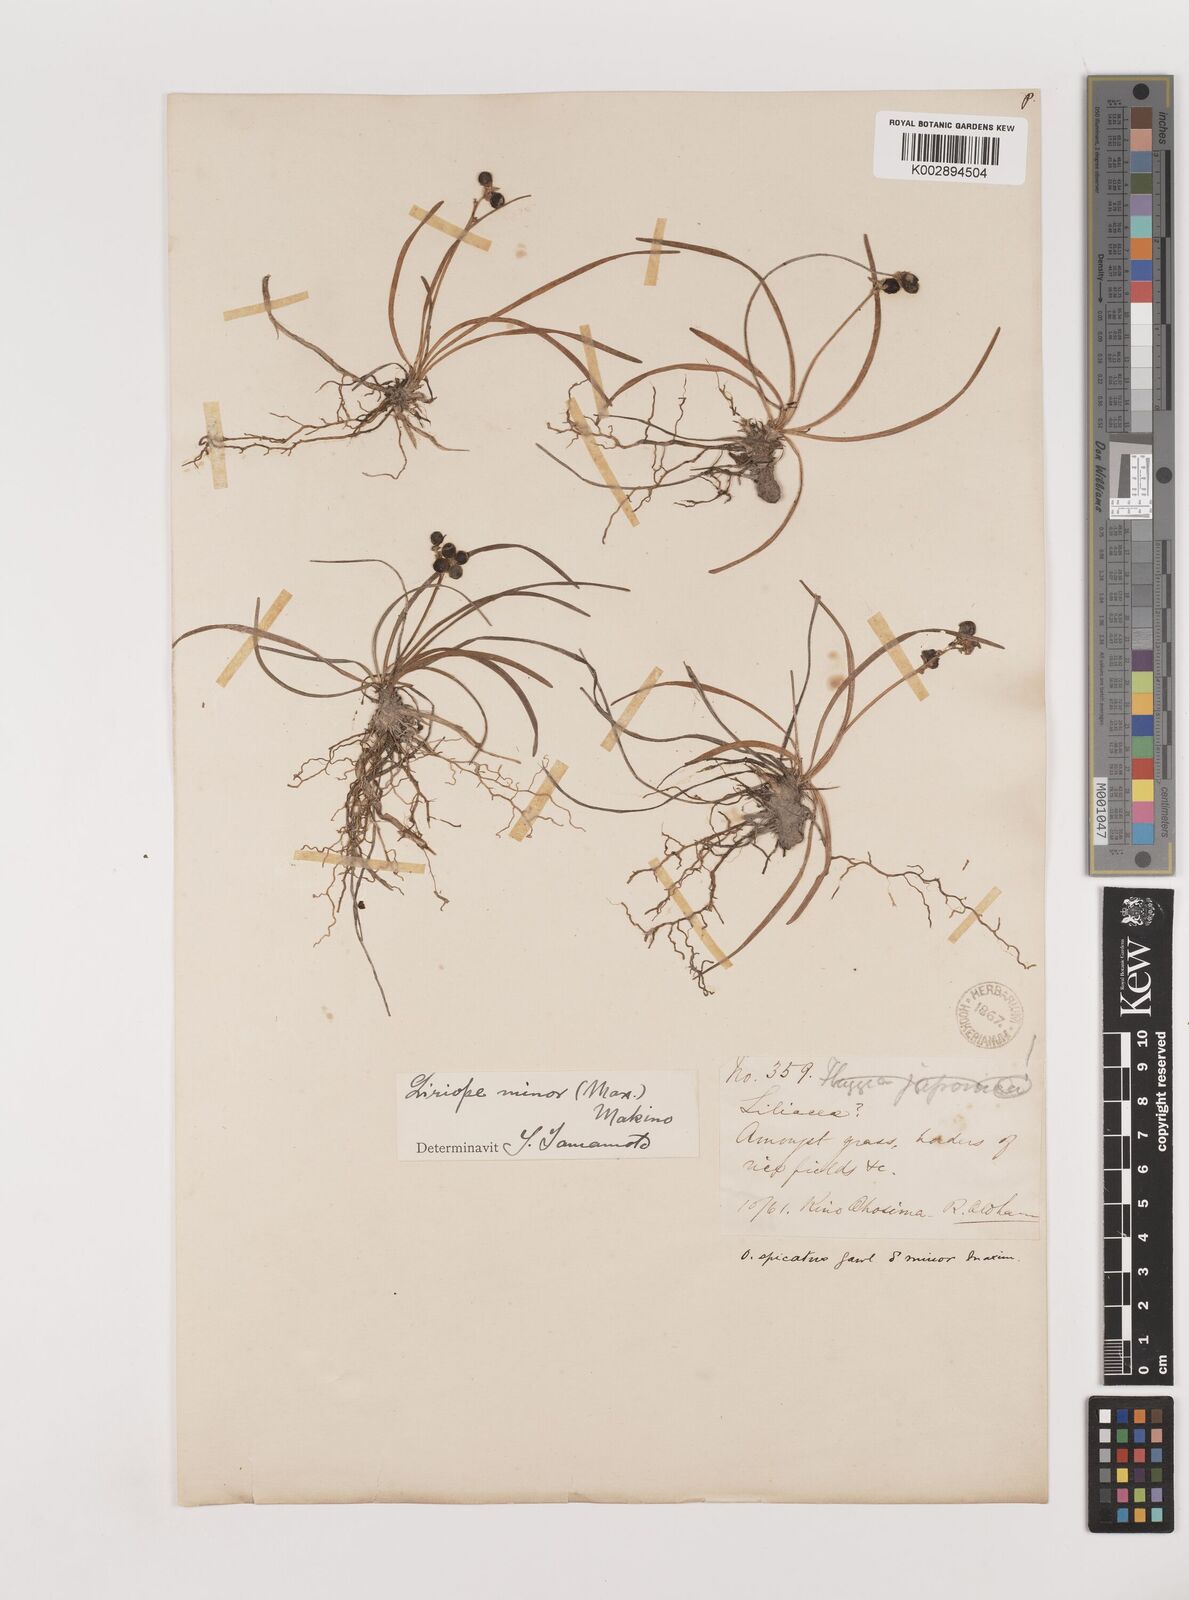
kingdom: Plantae
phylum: Tracheophyta
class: Liliopsida
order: Asparagales
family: Asparagaceae
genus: Liriope
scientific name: Liriope minor
